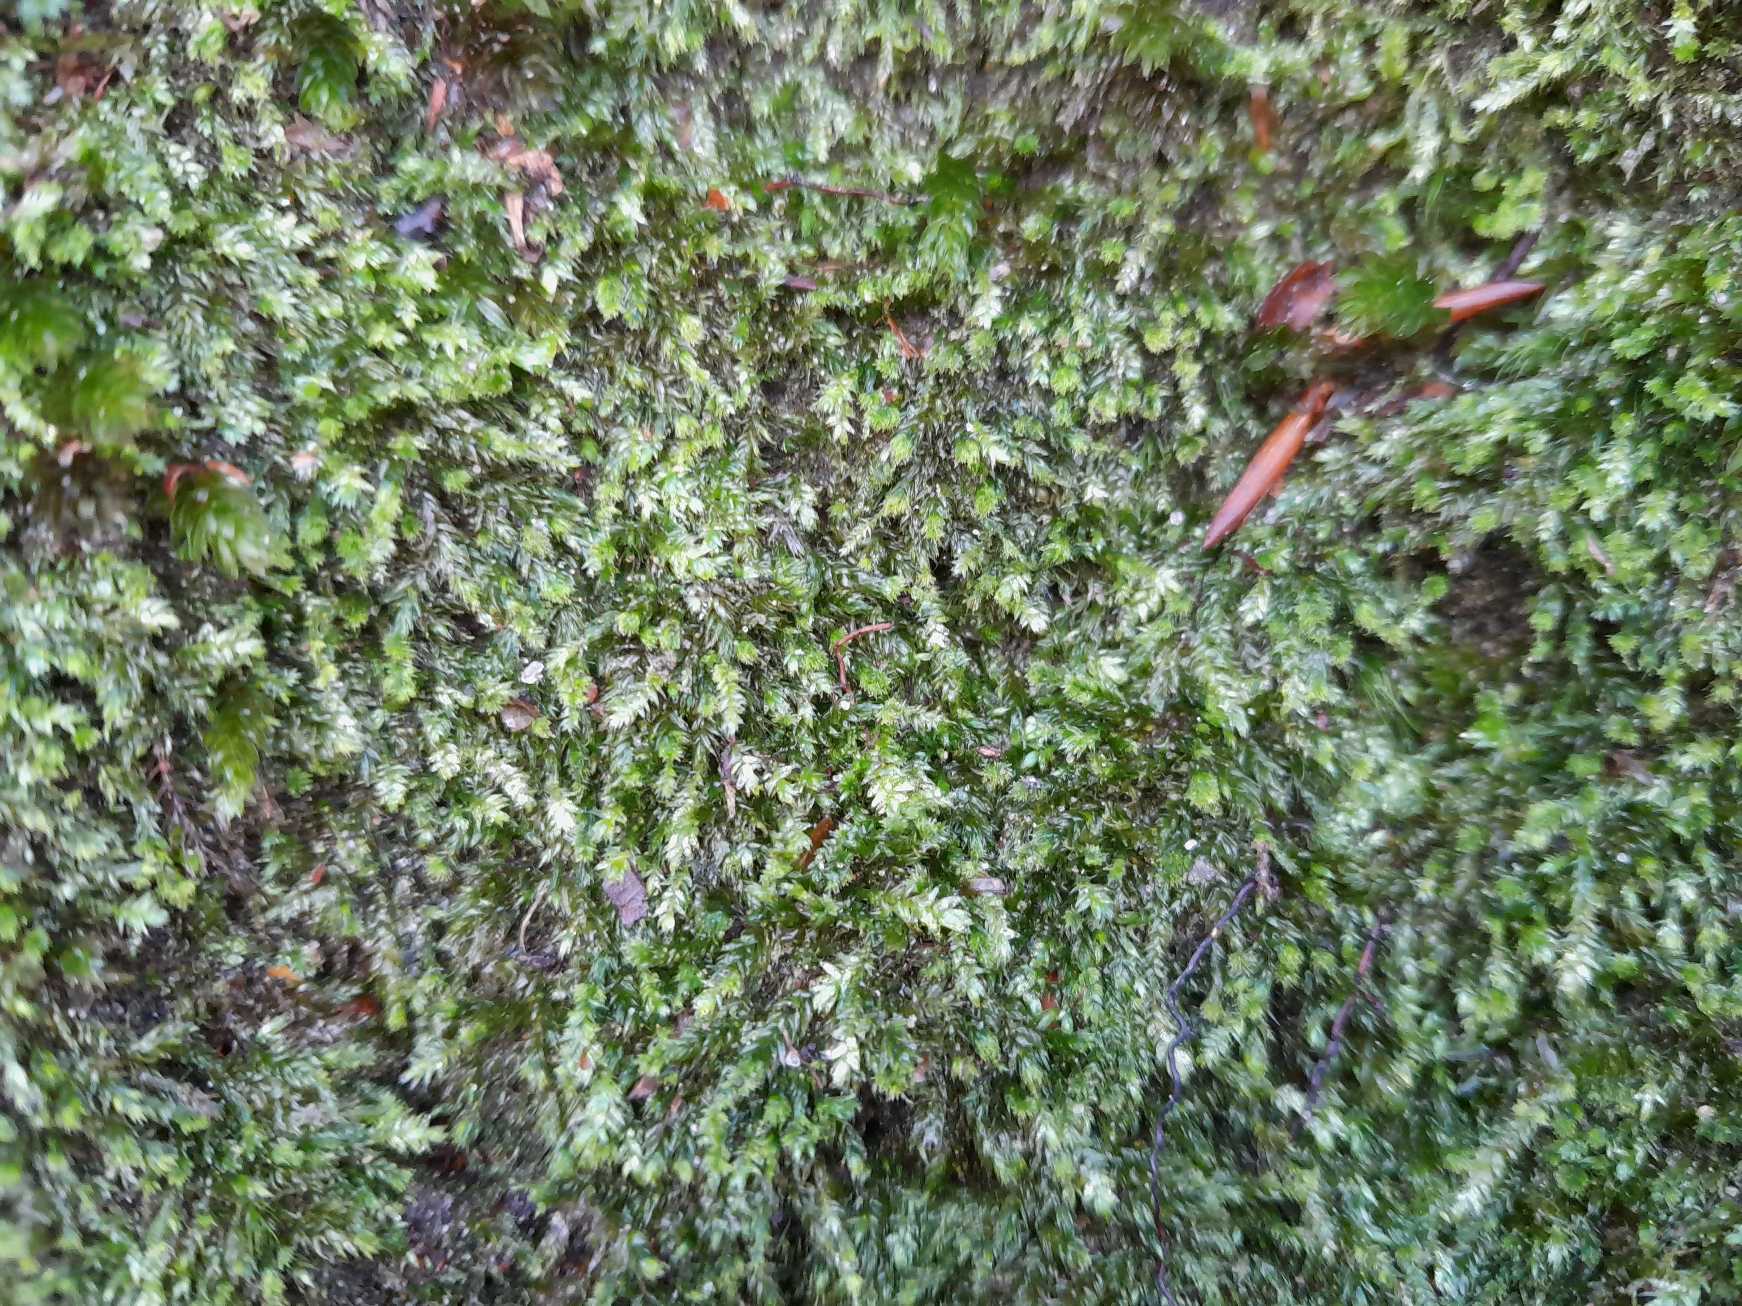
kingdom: Plantae
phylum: Bryophyta
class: Bryopsida
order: Hypnales
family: Plagiotheciaceae
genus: Pseudotaxiphyllum
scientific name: Pseudotaxiphyllum elegans
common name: Skinnende ynglegren
